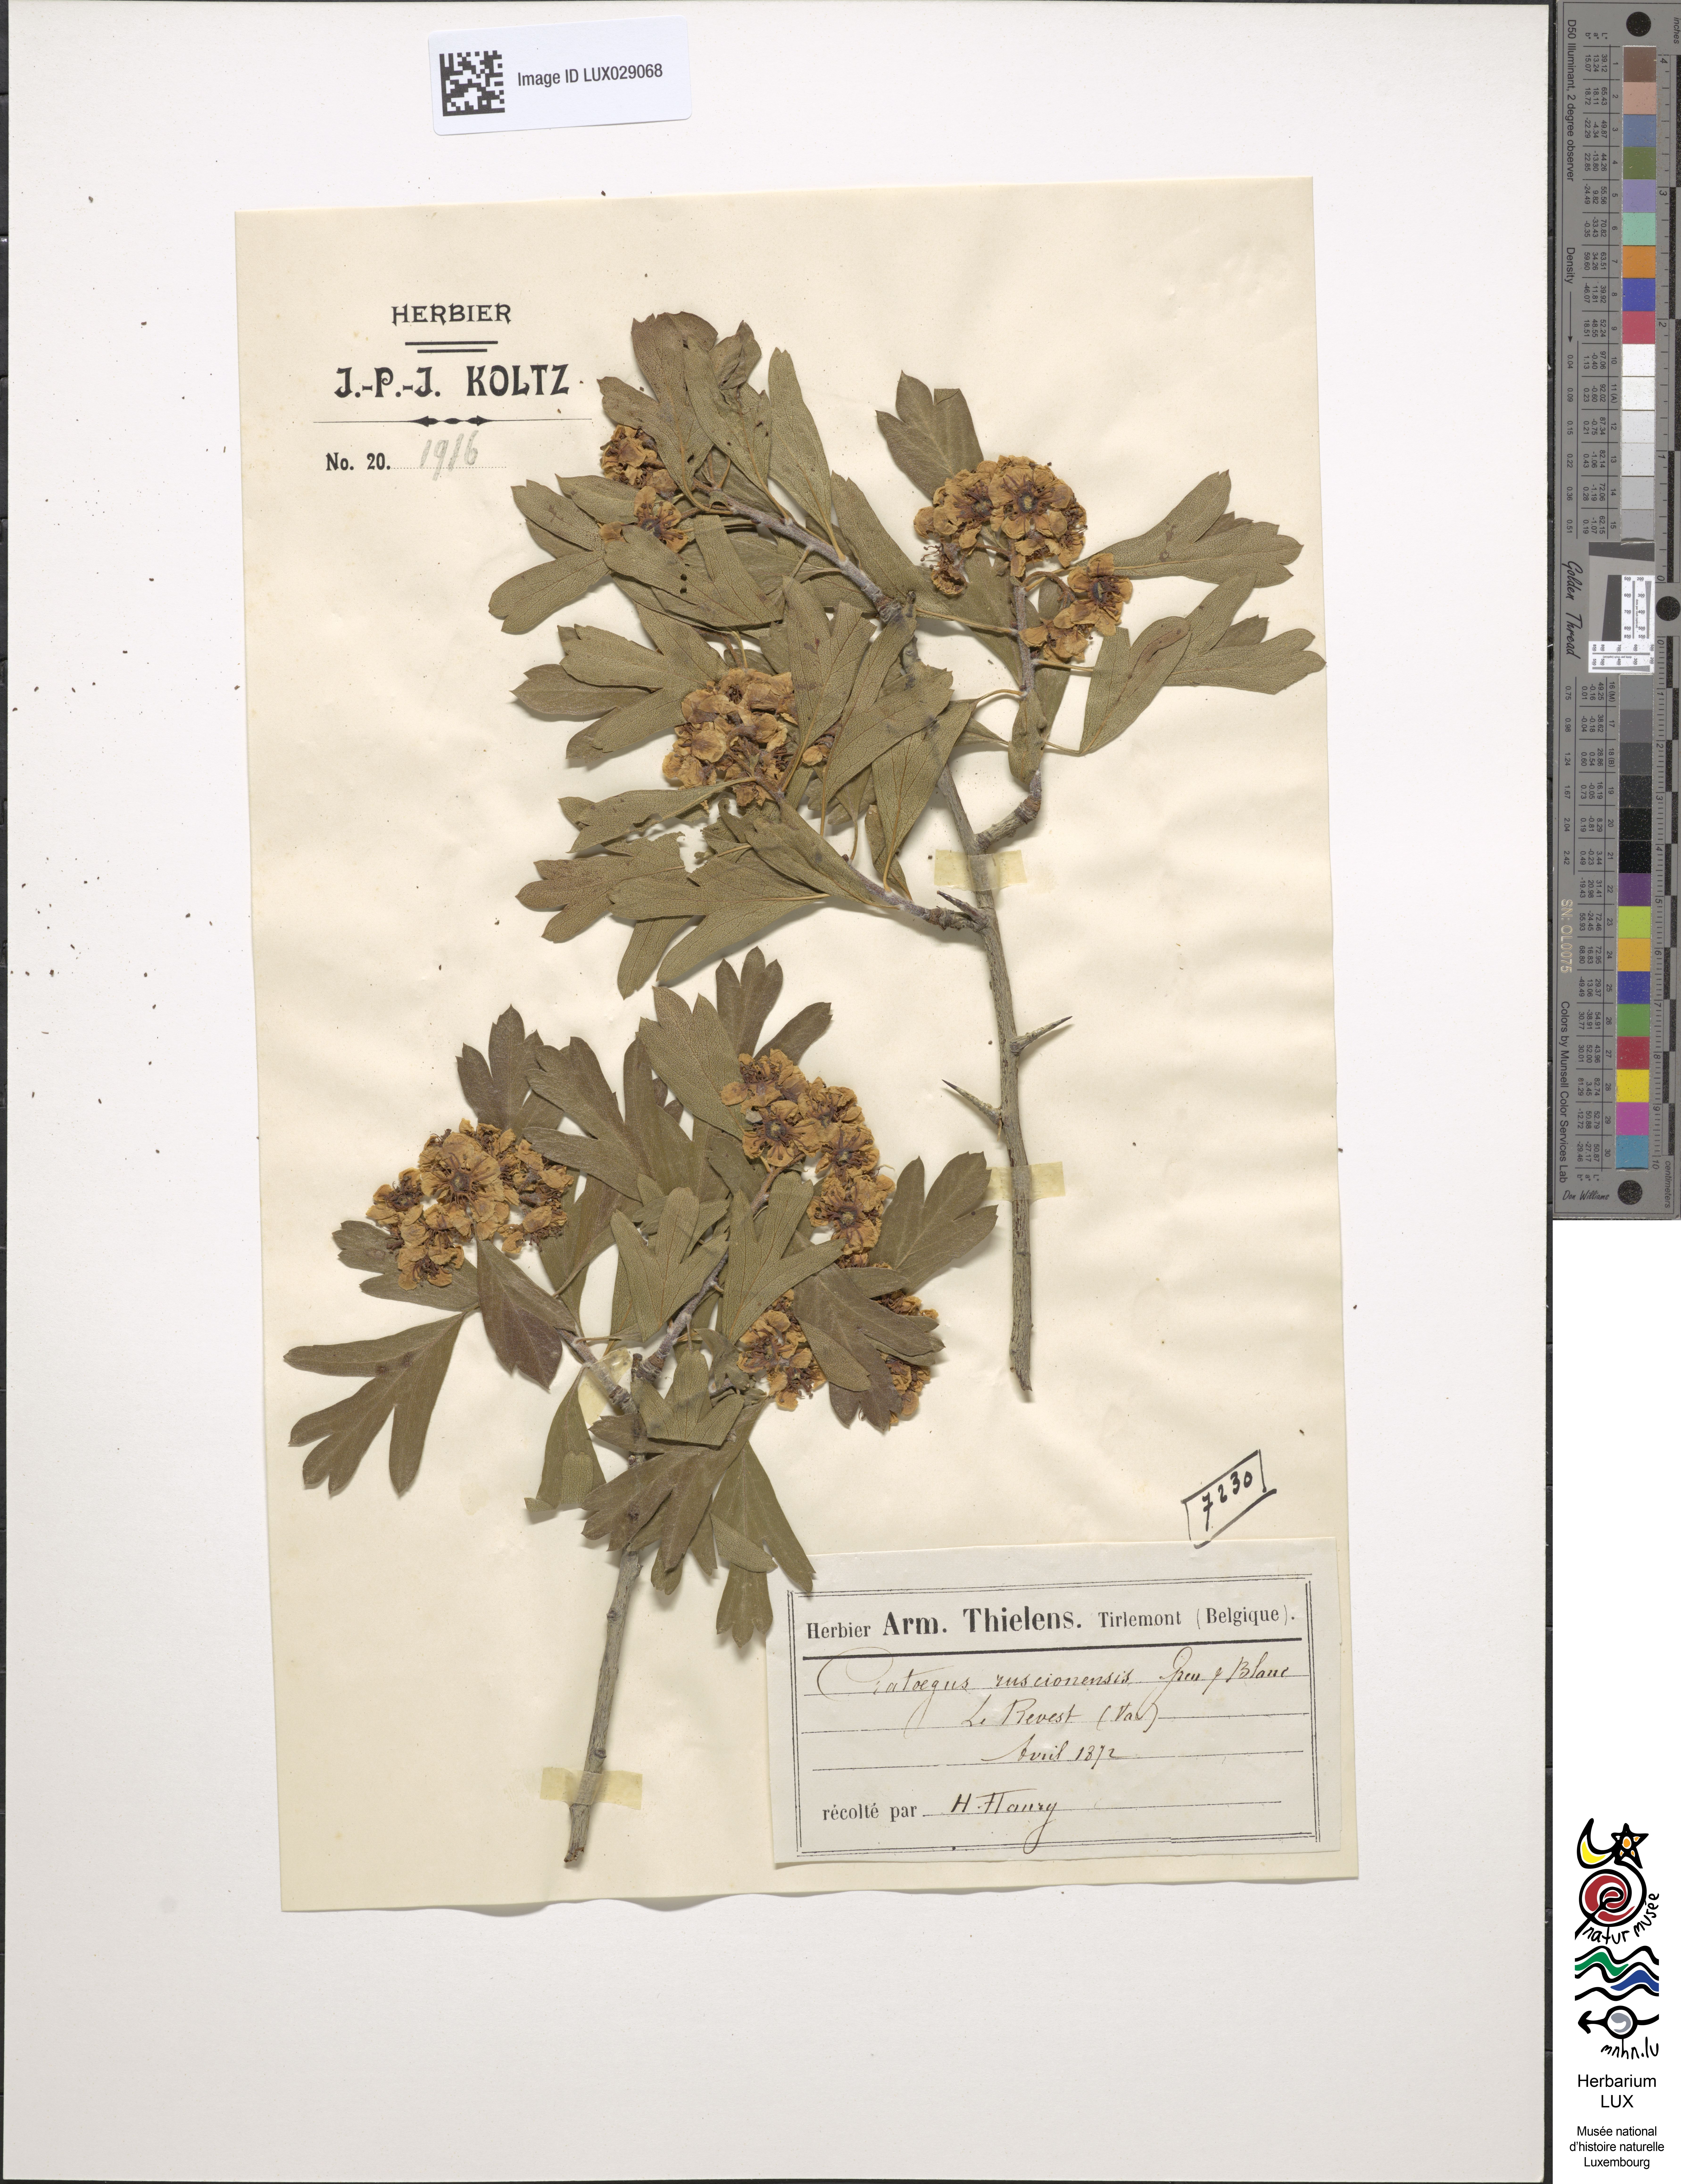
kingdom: Plantae
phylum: Tracheophyta
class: Magnoliopsida
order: Rosales
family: Rosaceae
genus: Mespilus
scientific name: Mespilus
